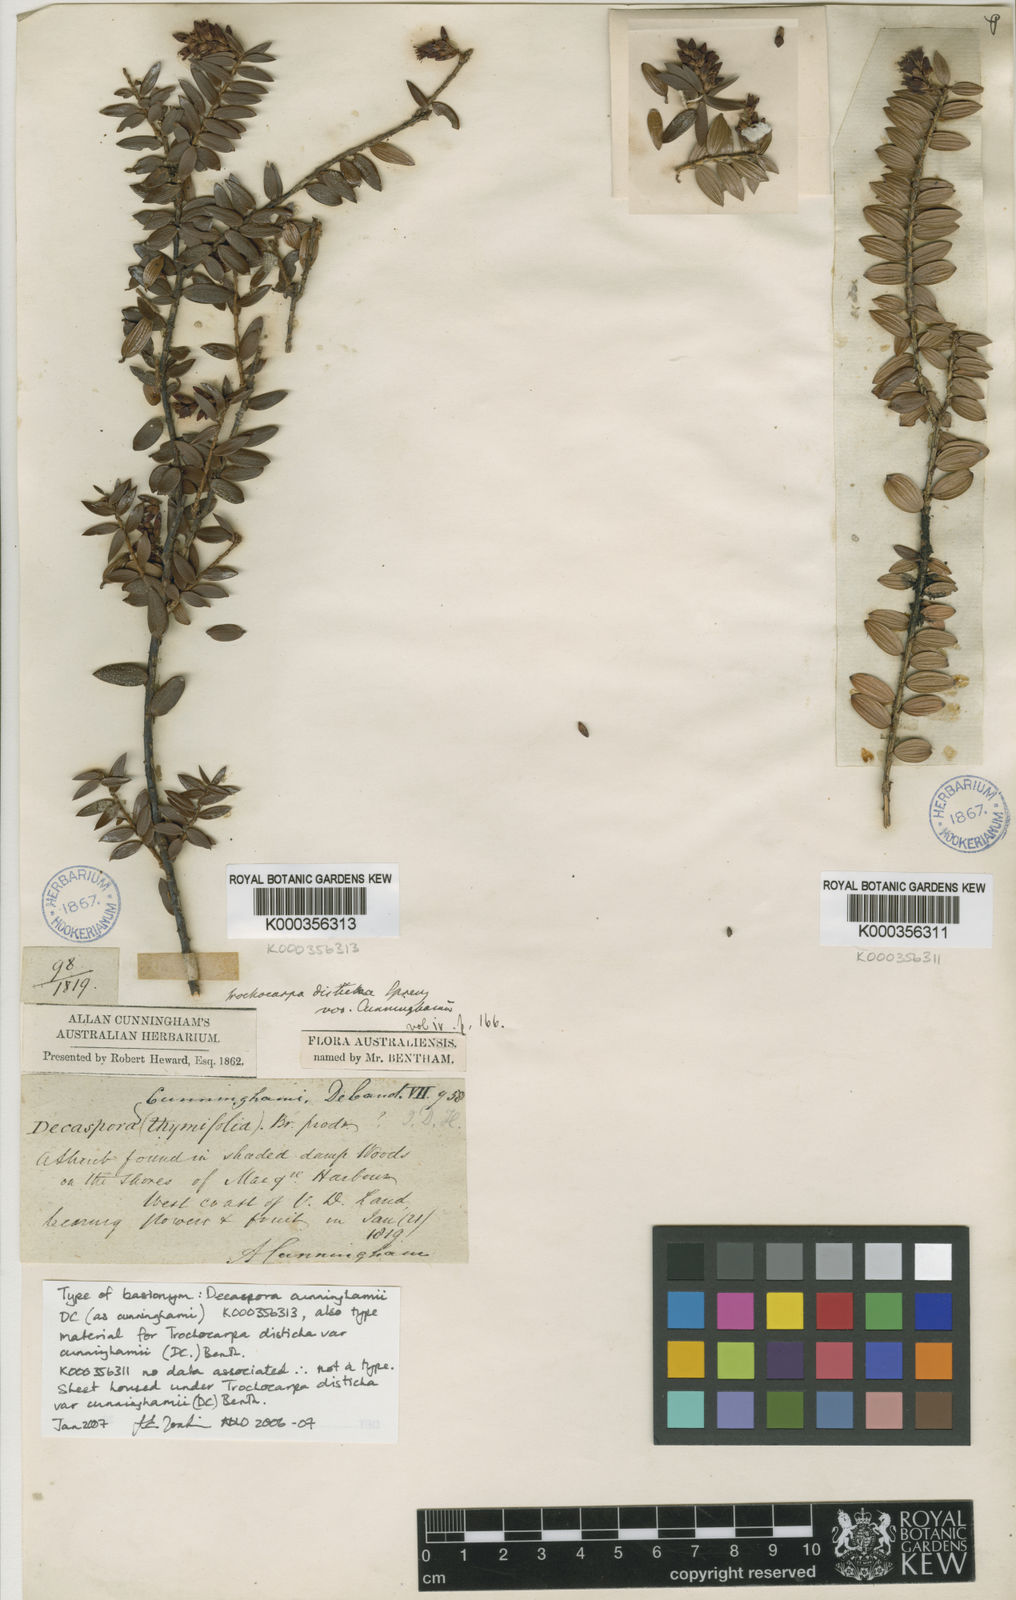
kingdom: Plantae
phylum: Tracheophyta
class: Magnoliopsida
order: Ericales
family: Ericaceae
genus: Trochocarpa
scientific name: Trochocarpa cunninghamii
